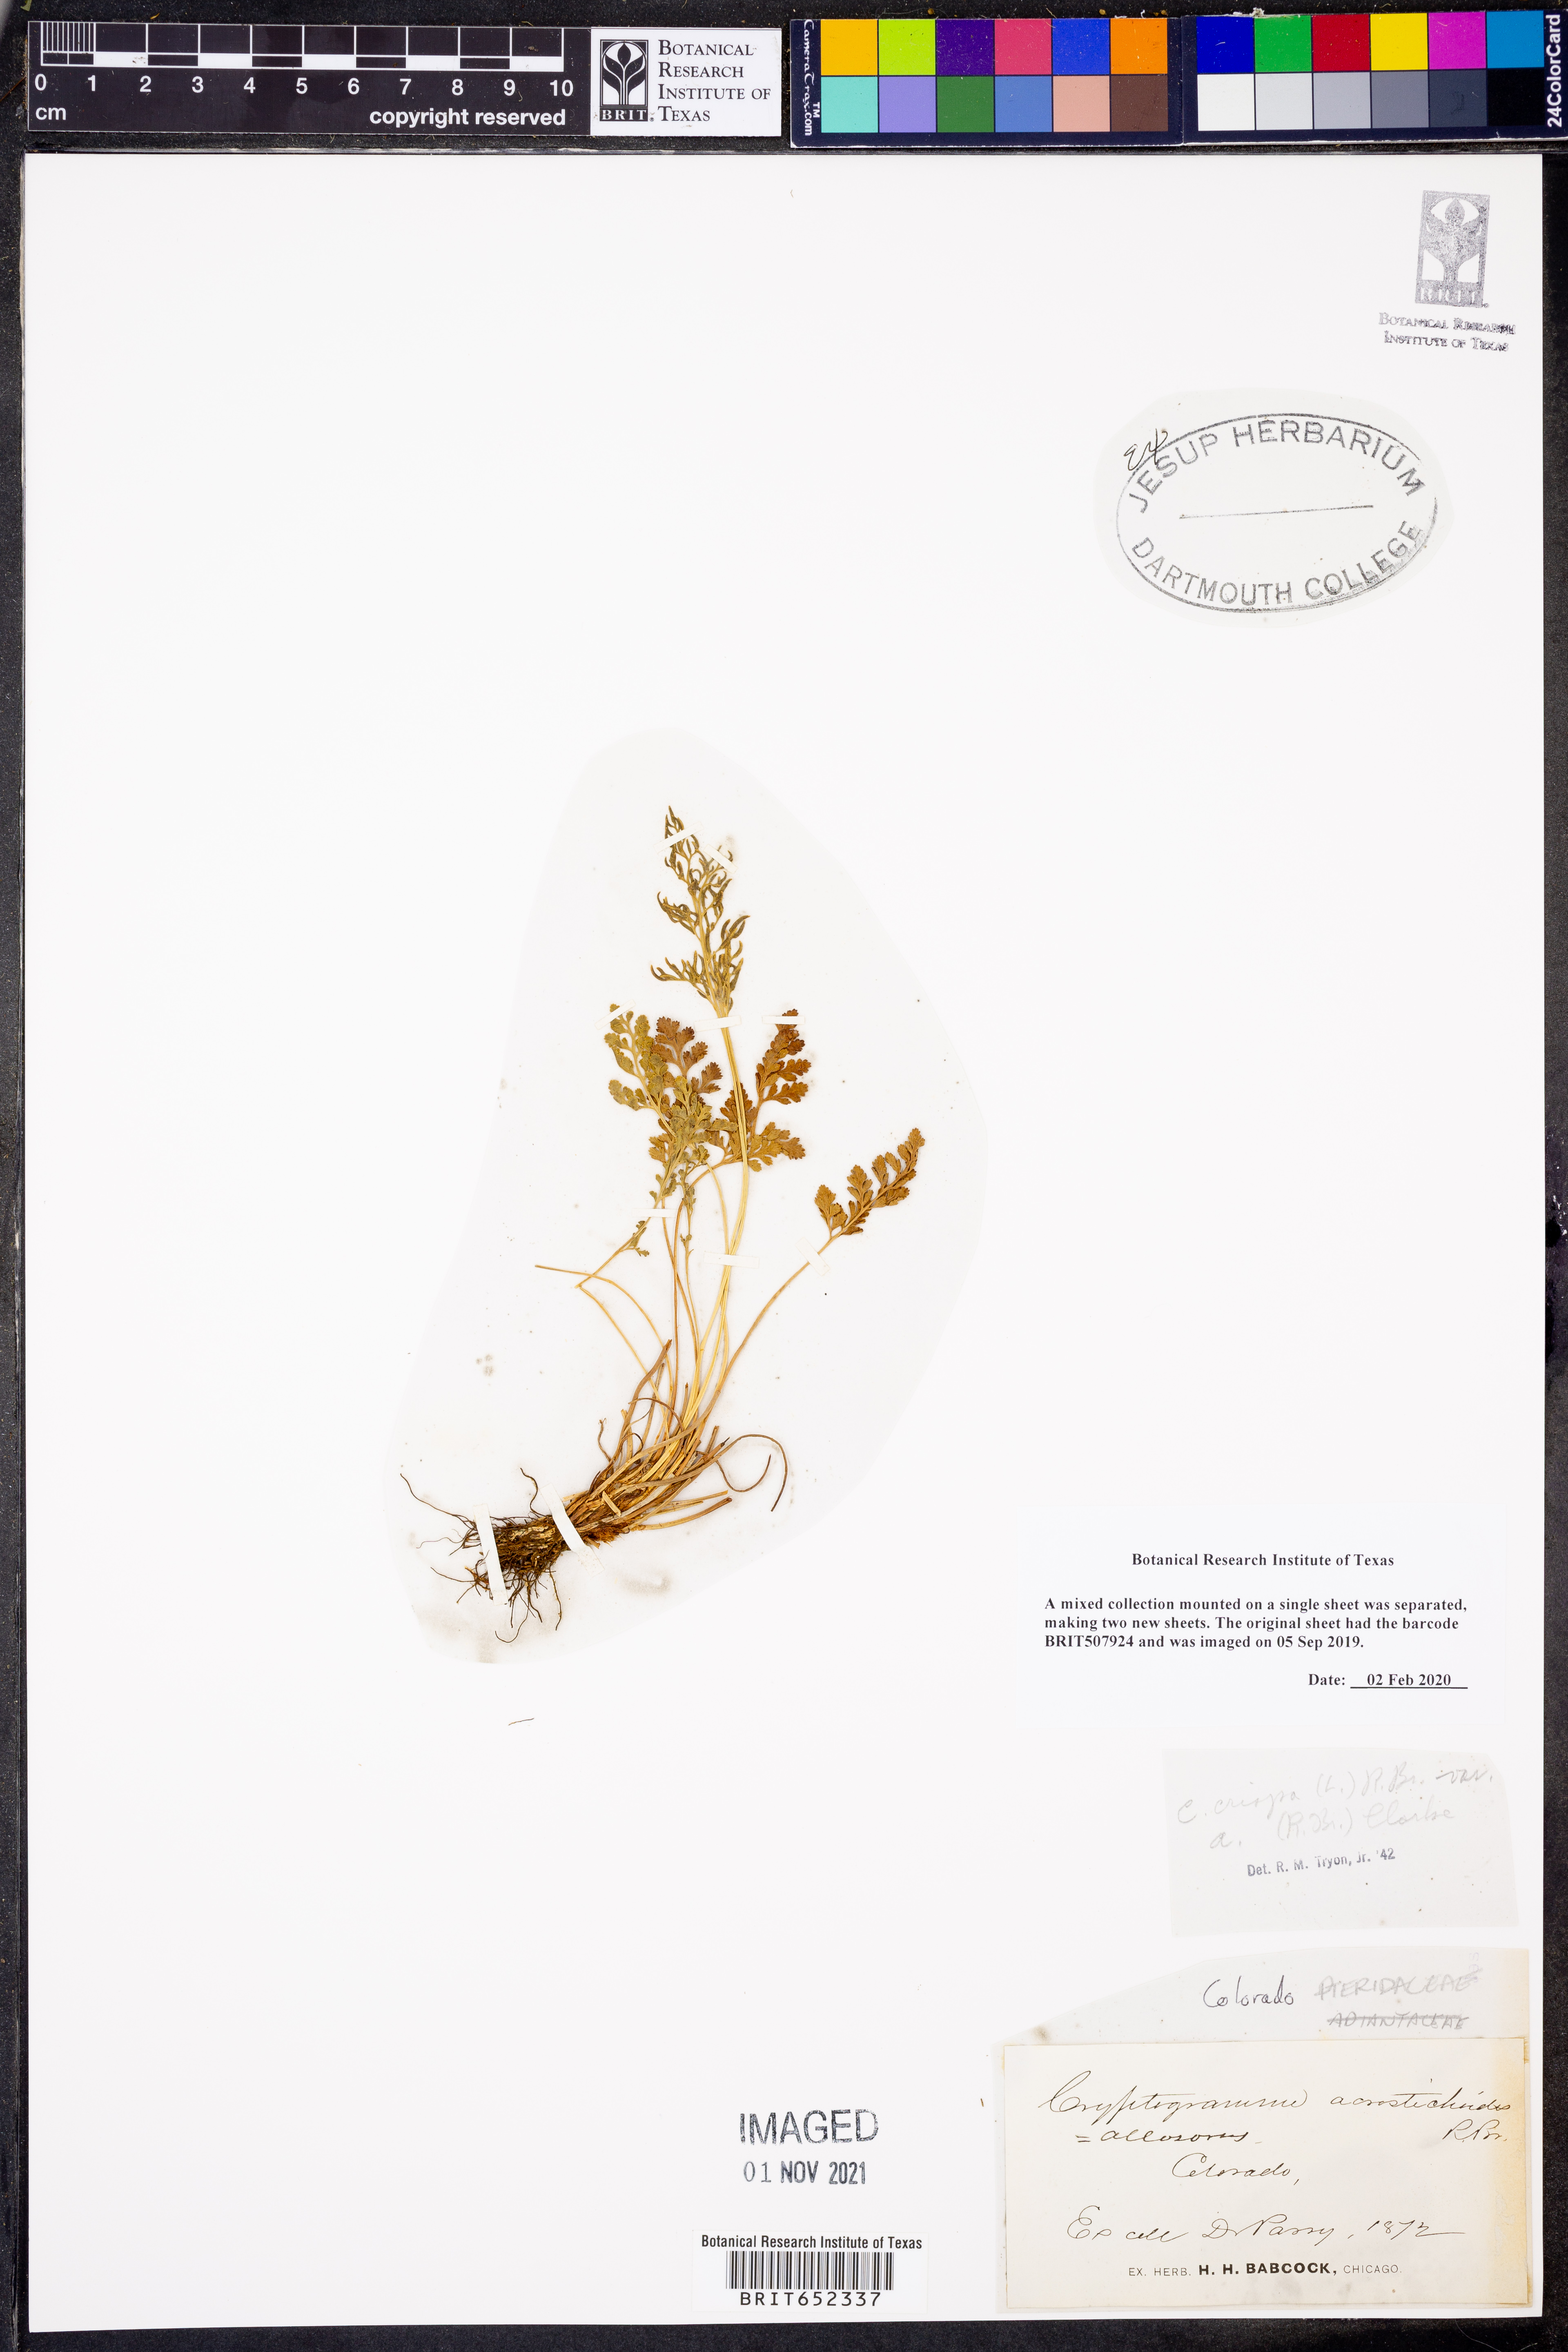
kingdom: Plantae
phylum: Tracheophyta
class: Polypodiopsida
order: Polypodiales
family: Pteridaceae
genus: Cryptogramma
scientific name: Cryptogramma acrostichoides
